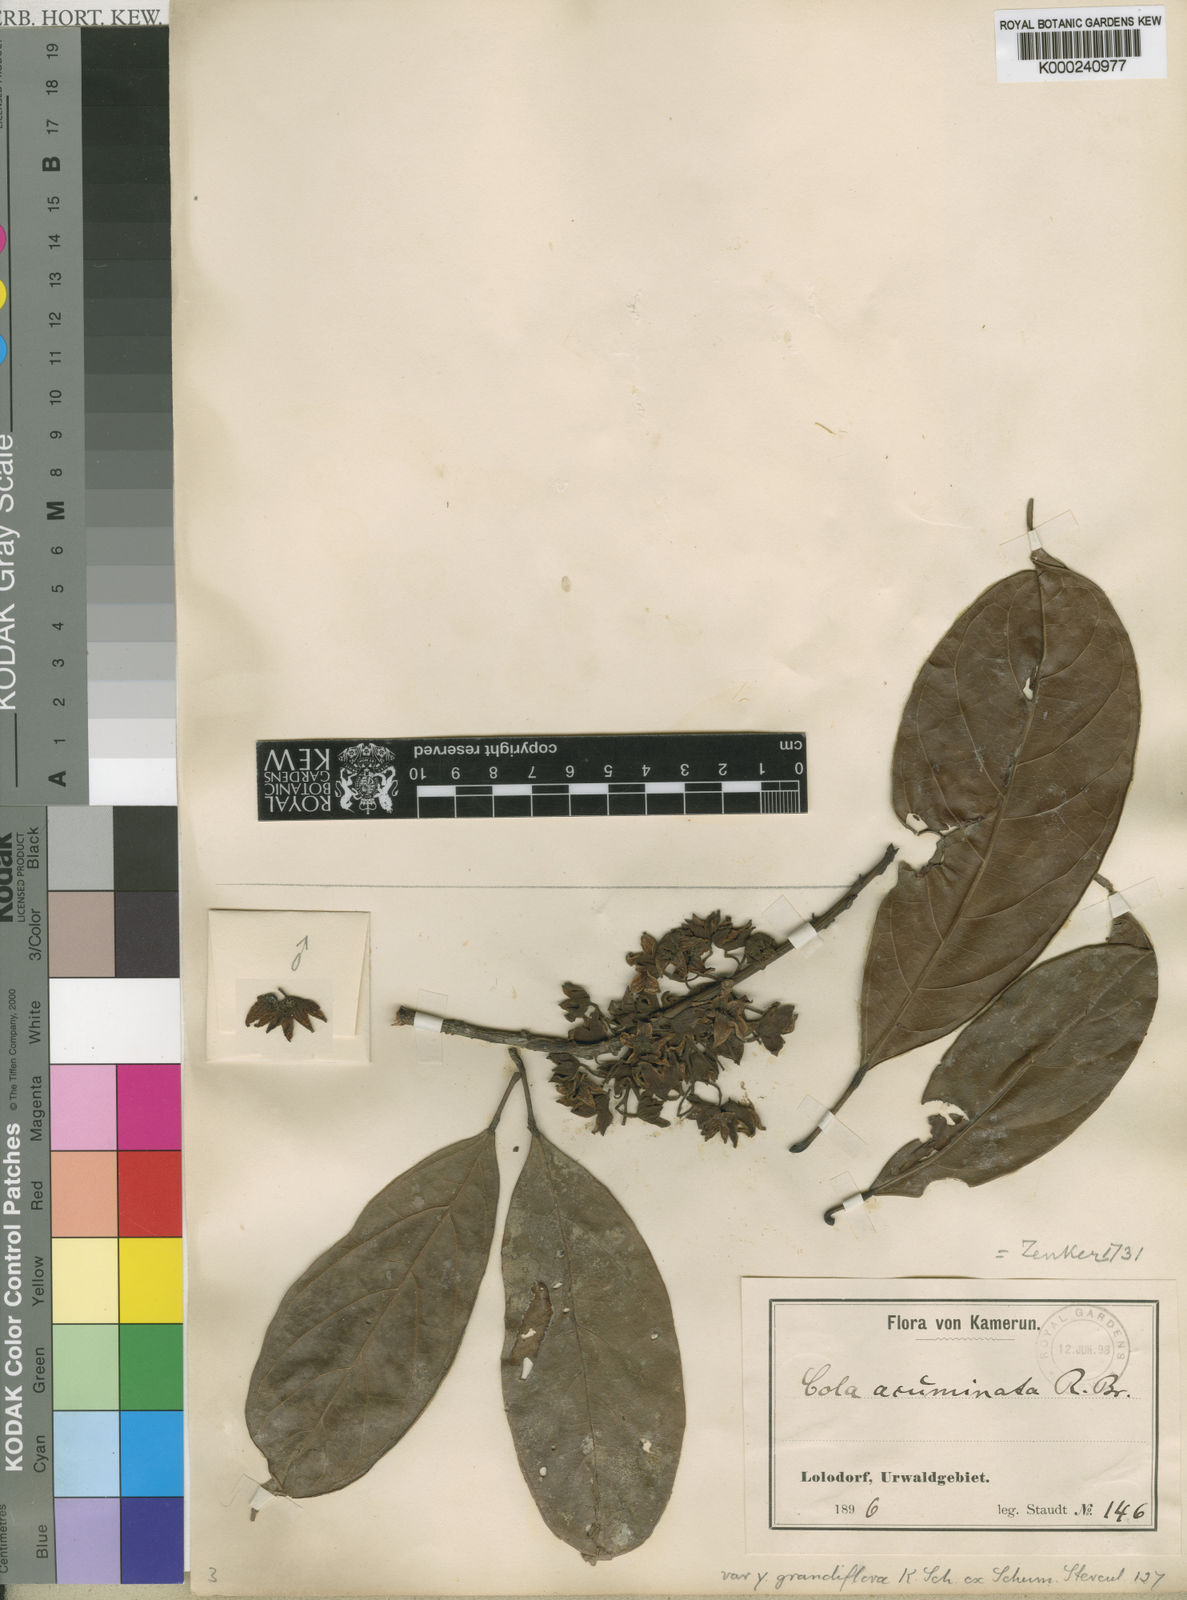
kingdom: Plantae
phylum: Tracheophyta
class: Magnoliopsida
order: Malvales
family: Malvaceae
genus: Cola
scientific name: Cola acuminata
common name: True kola
